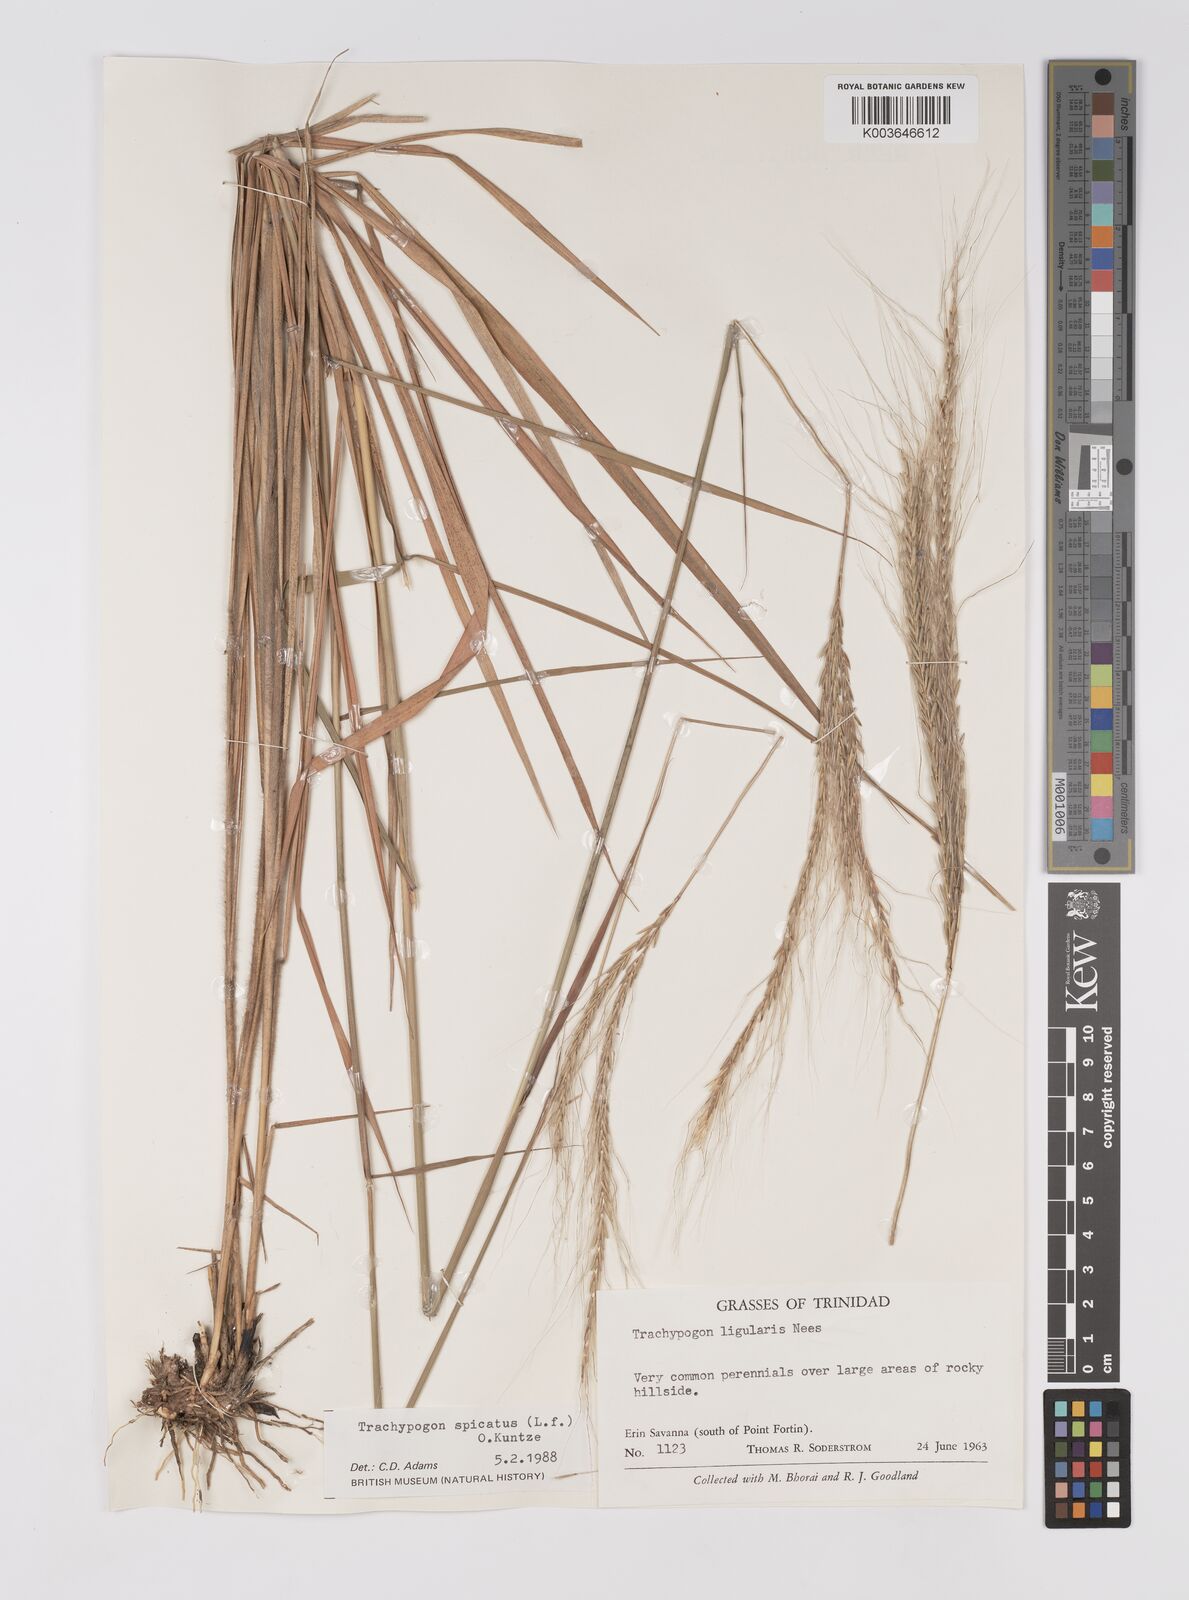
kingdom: Plantae
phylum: Tracheophyta
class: Liliopsida
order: Poales
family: Poaceae
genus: Trachypogon
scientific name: Trachypogon spicatus
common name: Crinkle-awn
